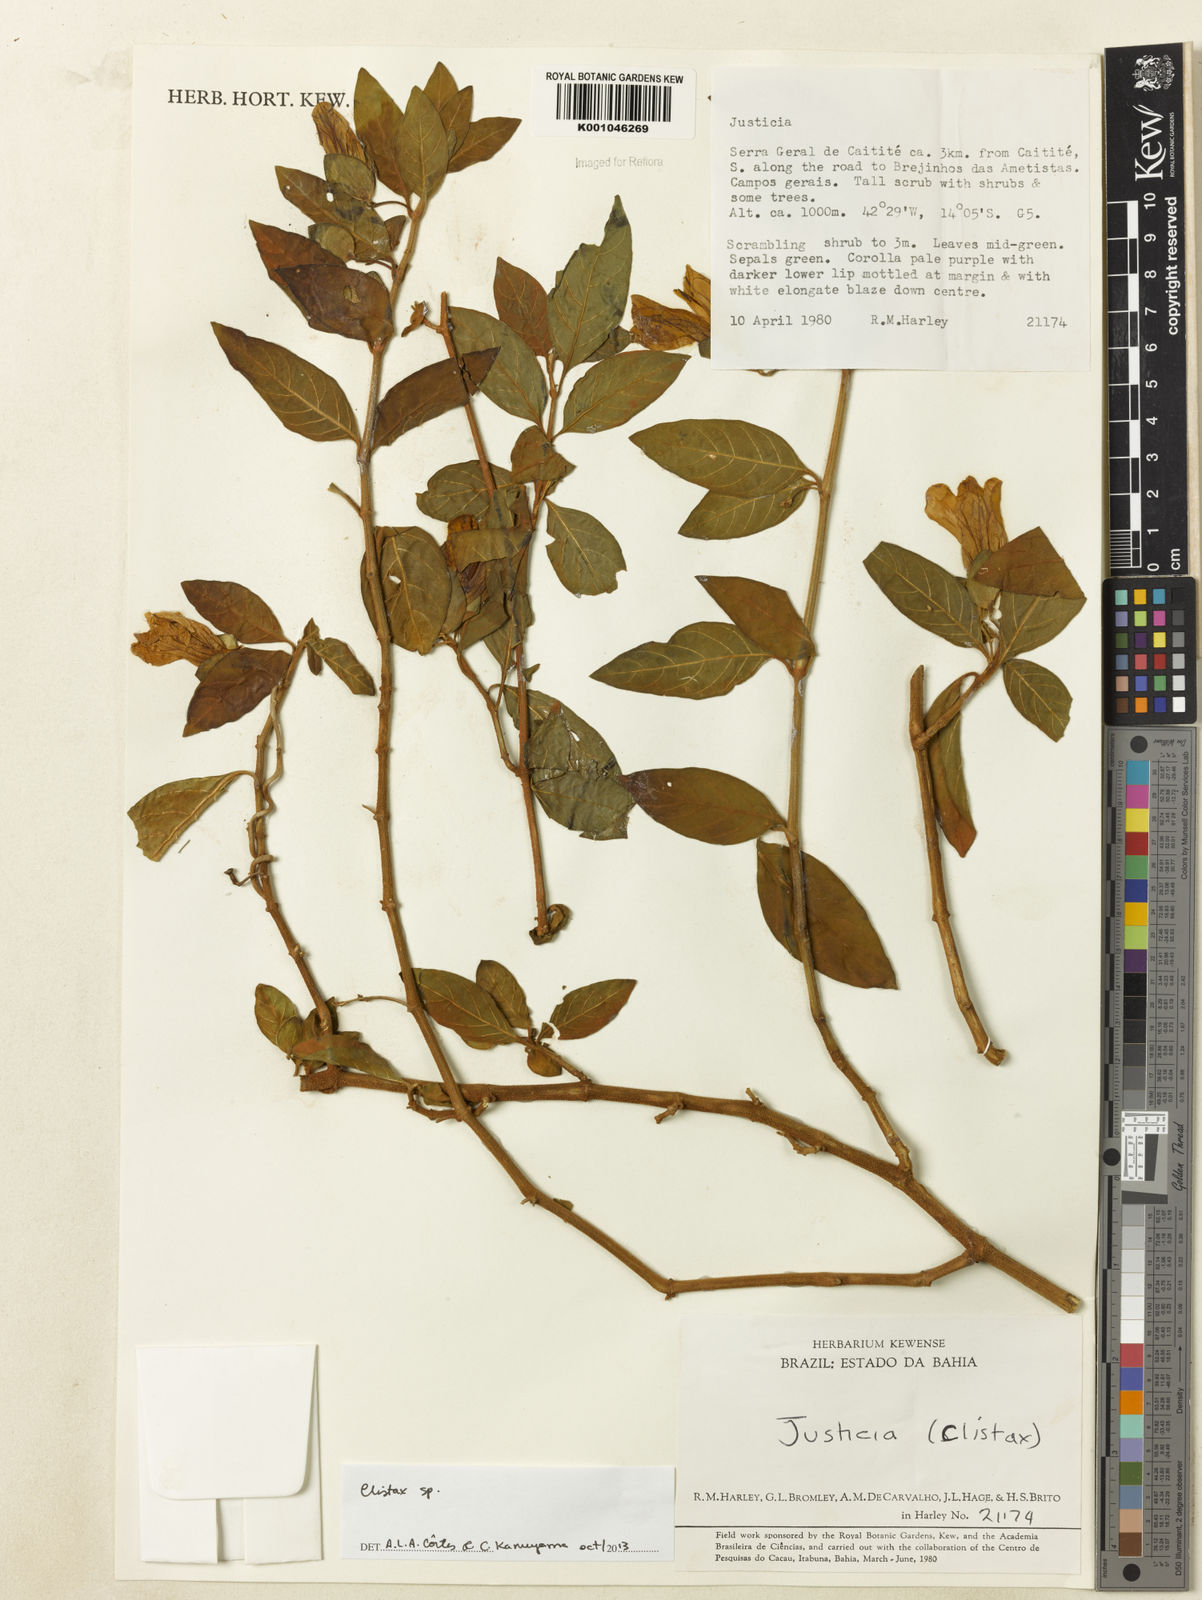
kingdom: Plantae
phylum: Tracheophyta
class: Magnoliopsida
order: Lamiales
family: Acanthaceae
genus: Clistax
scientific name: Clistax brasiliensis
